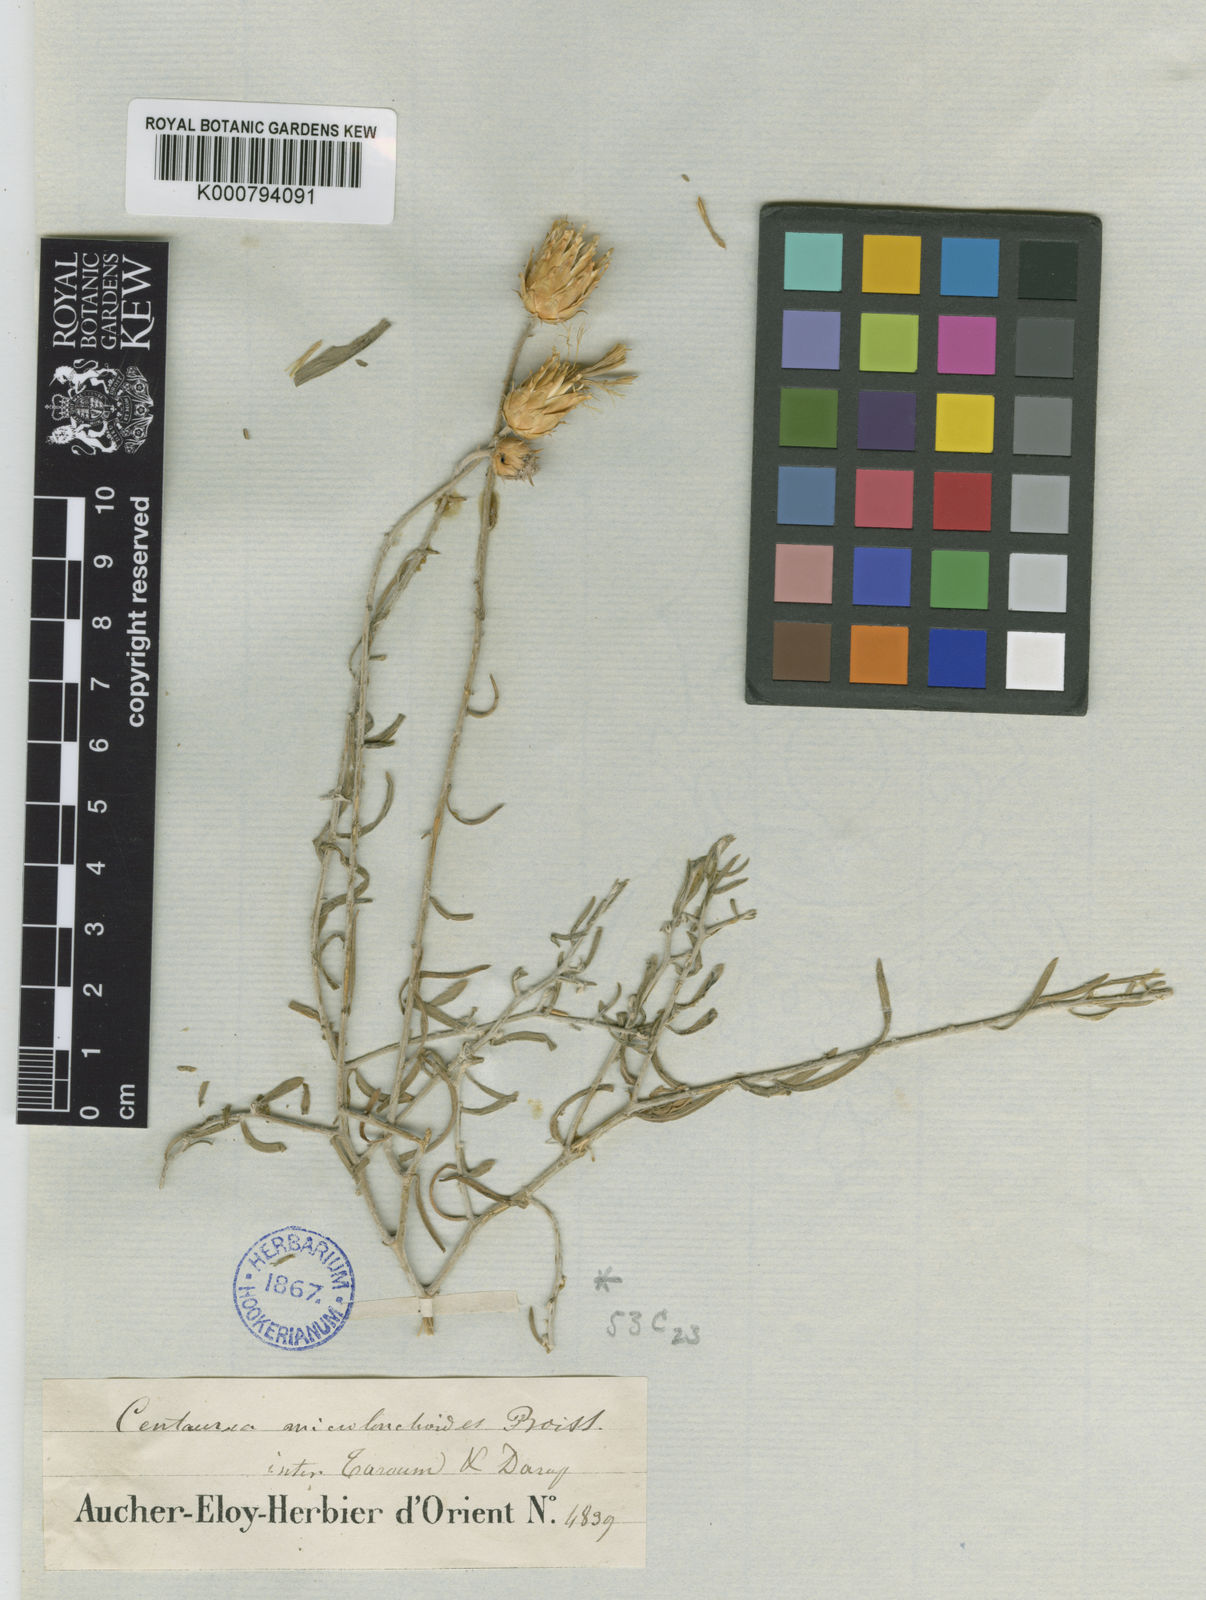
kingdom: Plantae
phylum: Tracheophyta
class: Magnoliopsida
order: Asterales
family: Asteraceae
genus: Centaurea
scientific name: Centaurea microlonchoides
